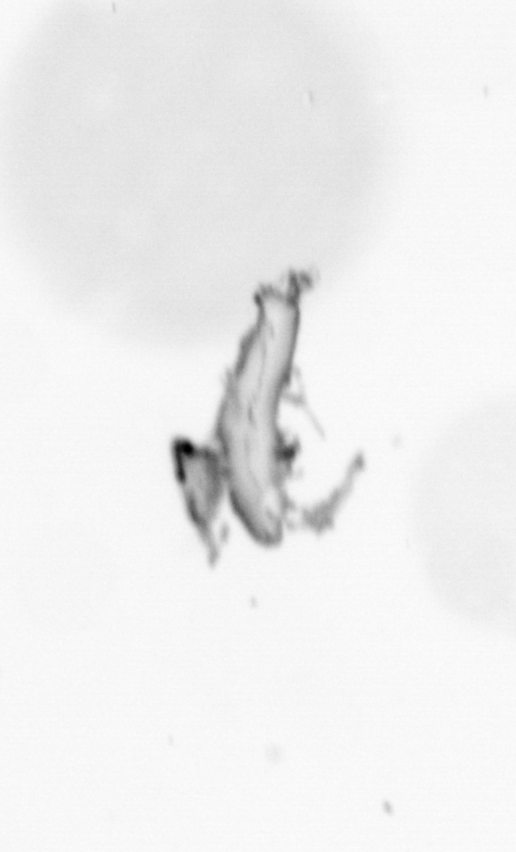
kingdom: Animalia
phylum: Chordata
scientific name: Chordata
